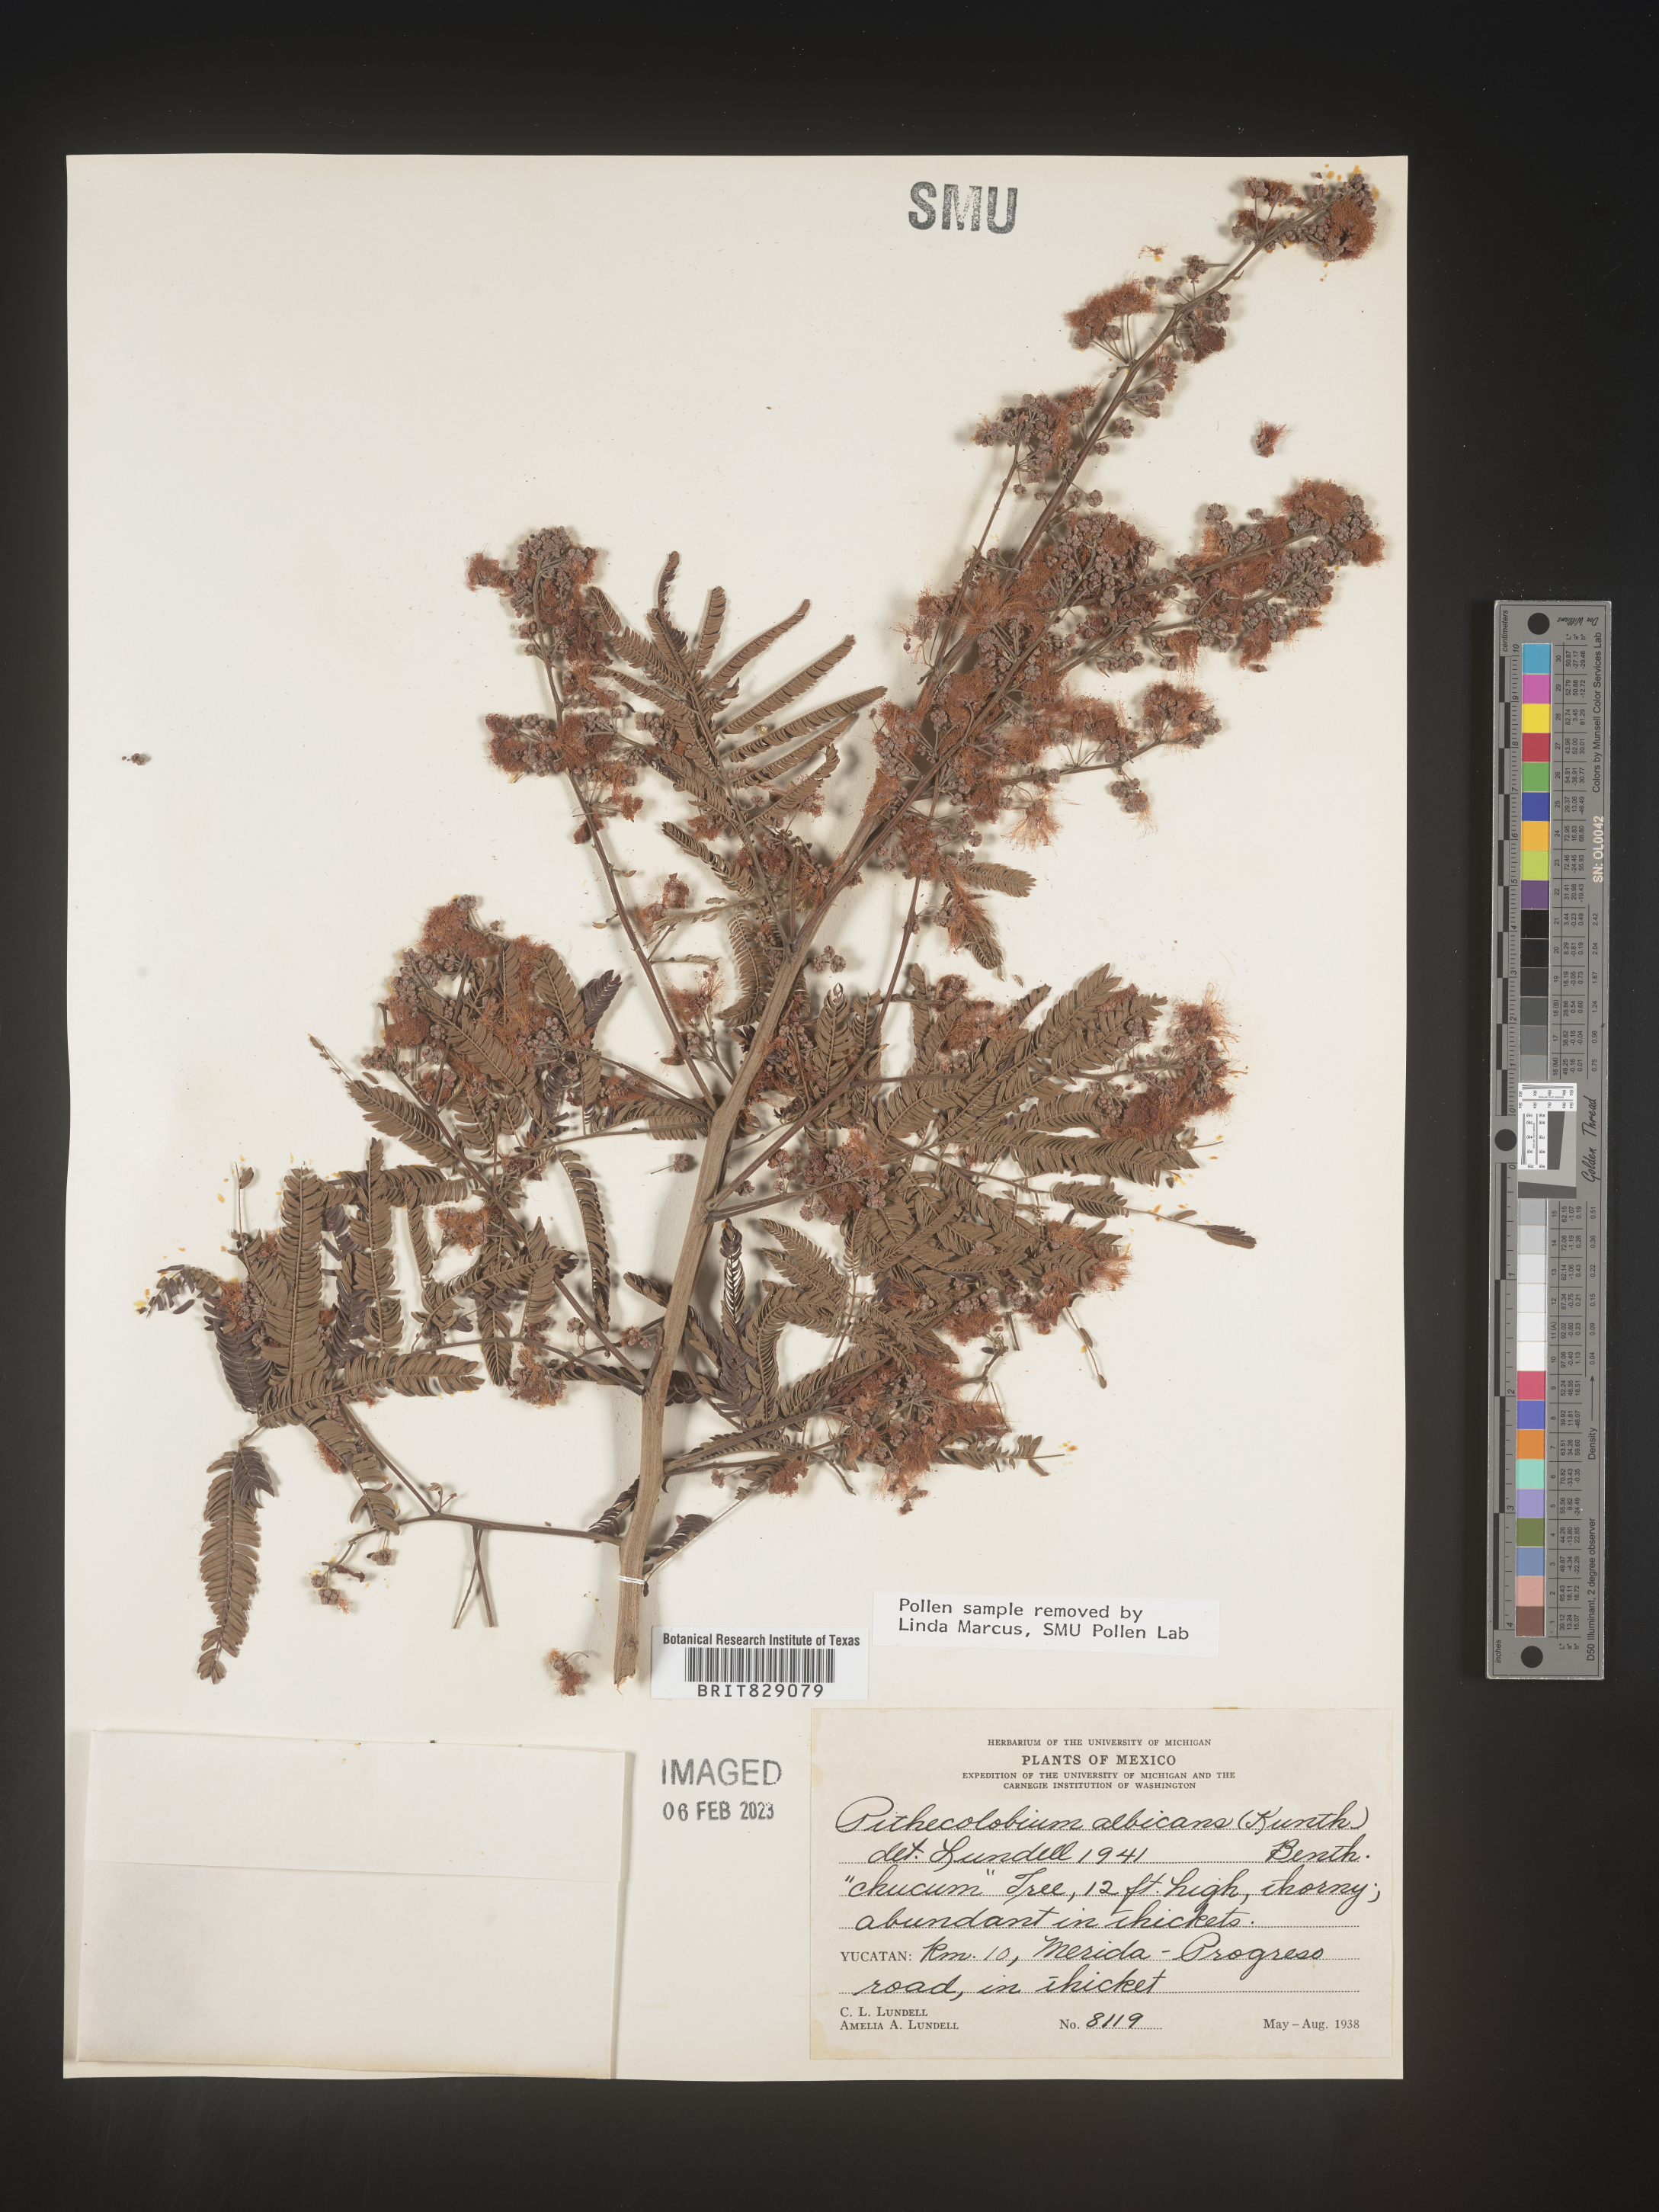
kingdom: Plantae
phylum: Tracheophyta
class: Magnoliopsida
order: Fabales
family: Fabaceae
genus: Pithecellobium
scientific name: Pithecellobium
